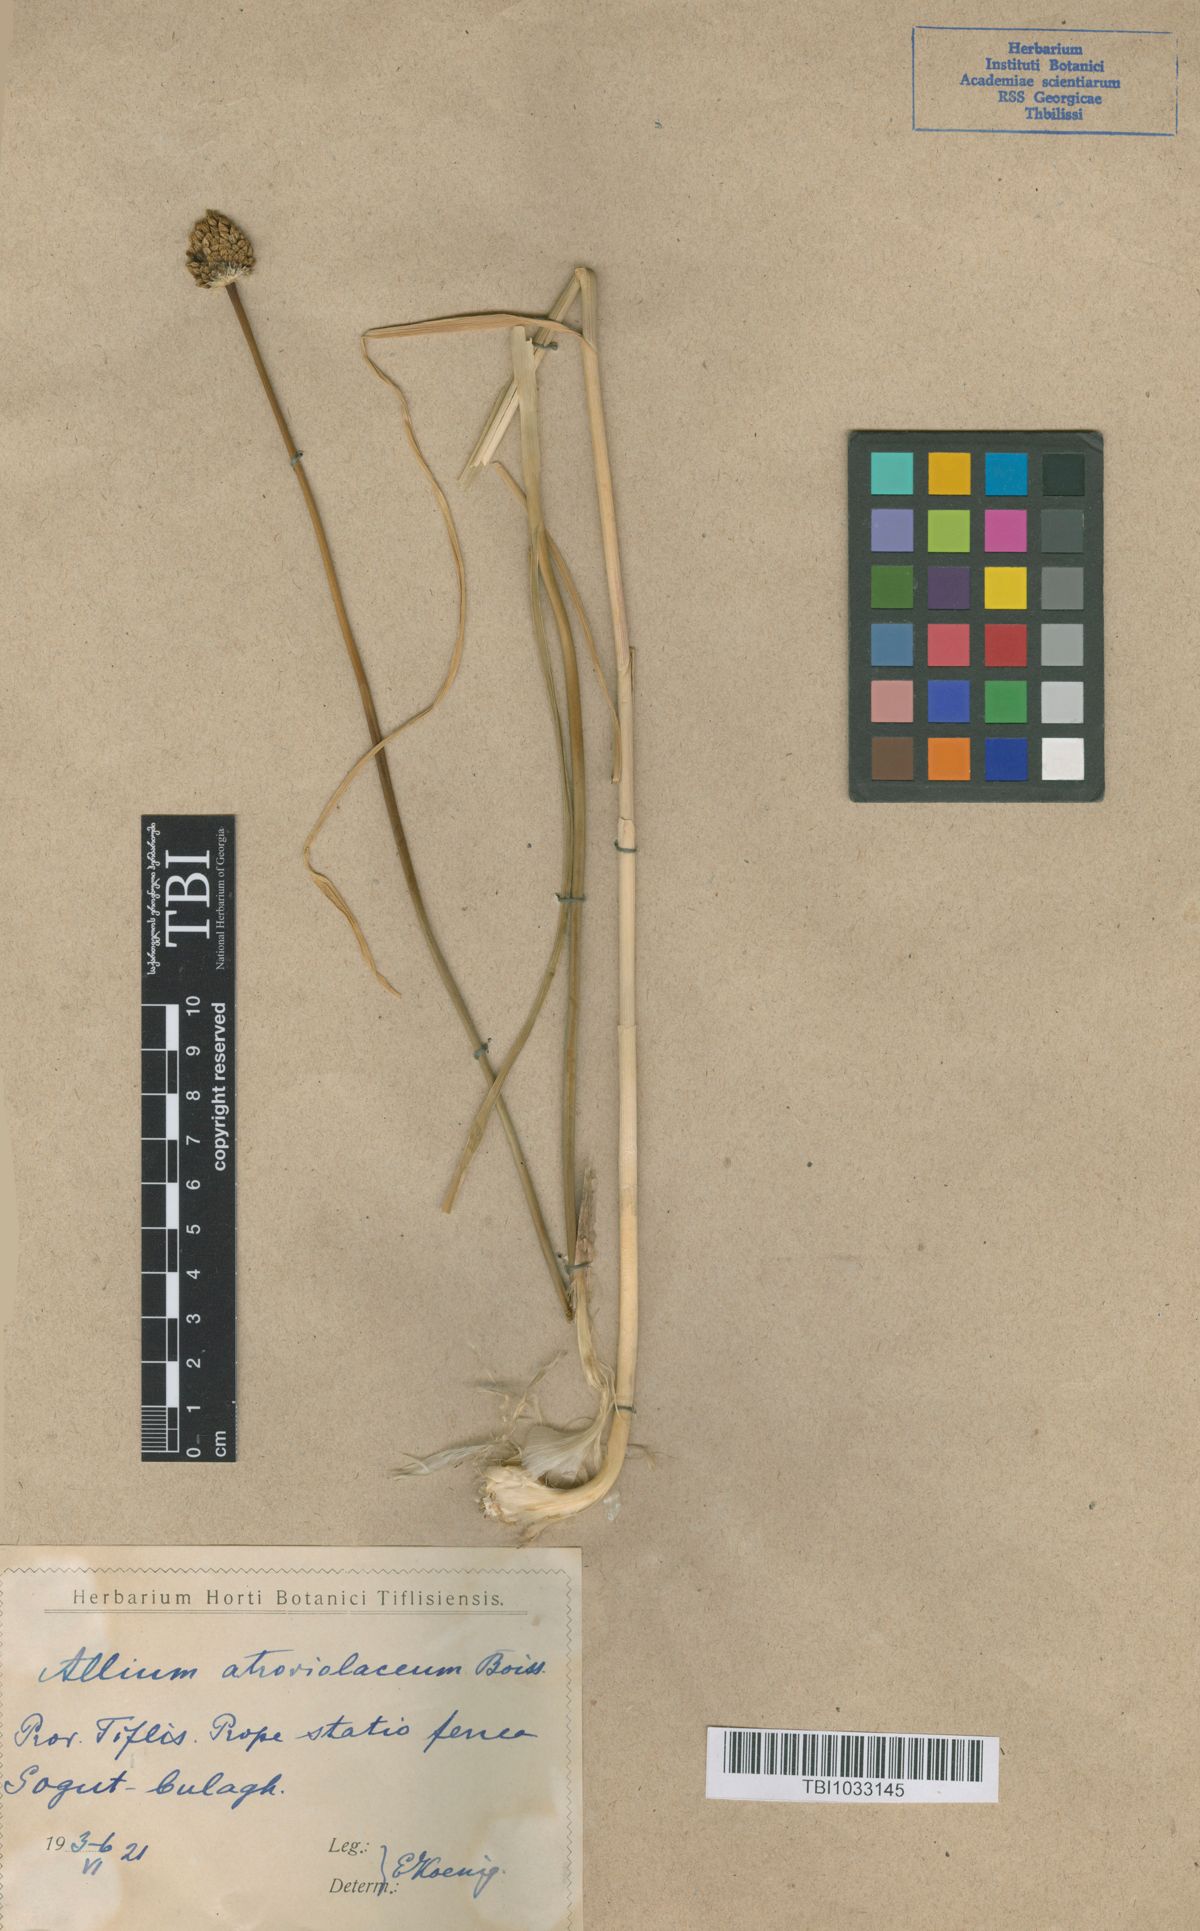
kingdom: Plantae
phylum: Tracheophyta
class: Liliopsida
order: Asparagales
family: Amaryllidaceae
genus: Allium
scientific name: Allium atroviolaceum
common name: Broadleaf wild leek
